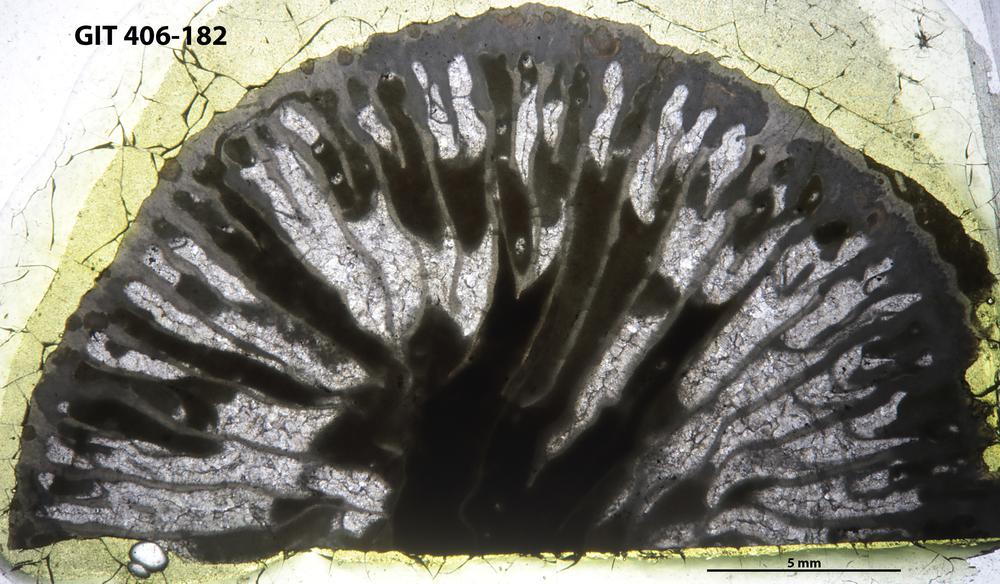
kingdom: Animalia
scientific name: Animalia
